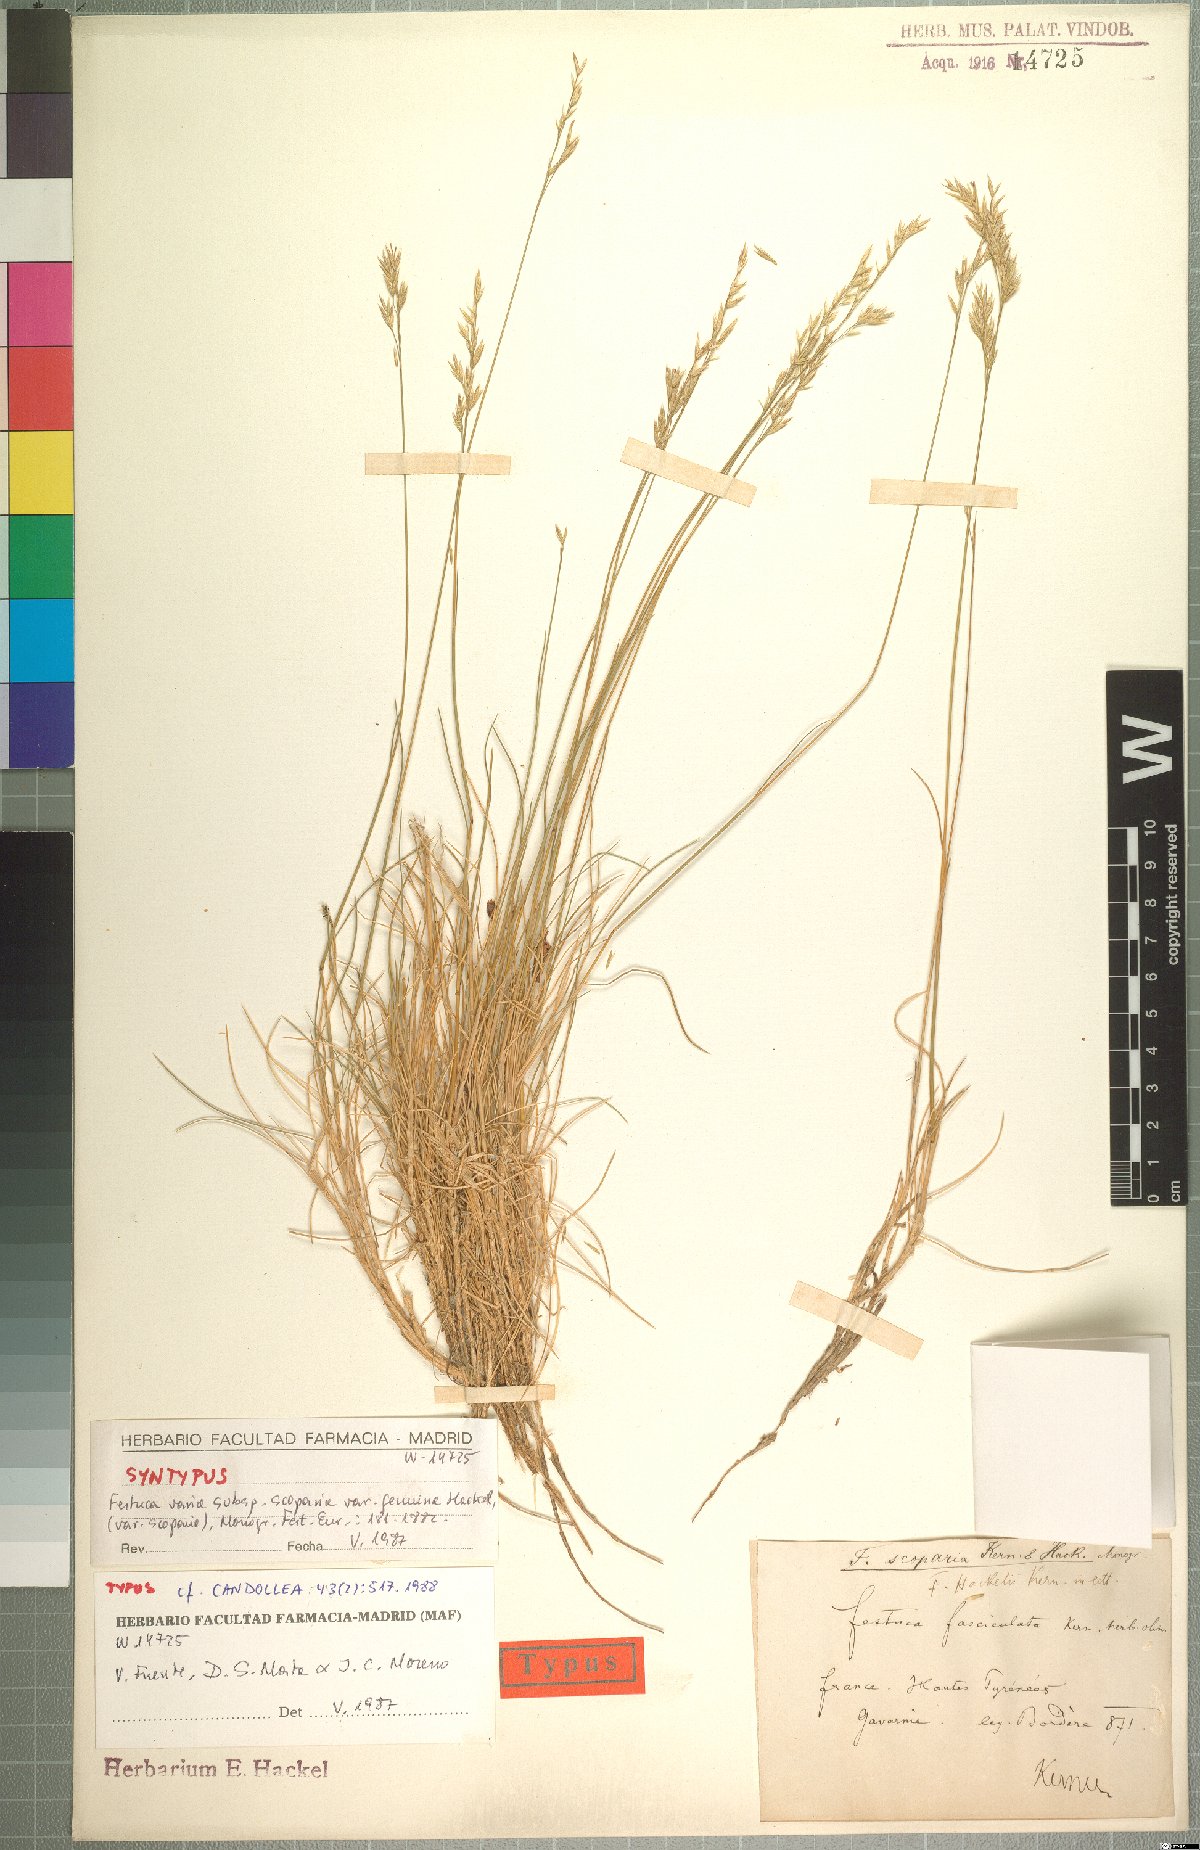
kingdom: Plantae
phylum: Tracheophyta
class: Liliopsida
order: Poales
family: Poaceae
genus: Festuca
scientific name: Festuca gautieri
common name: Spiky fescue
